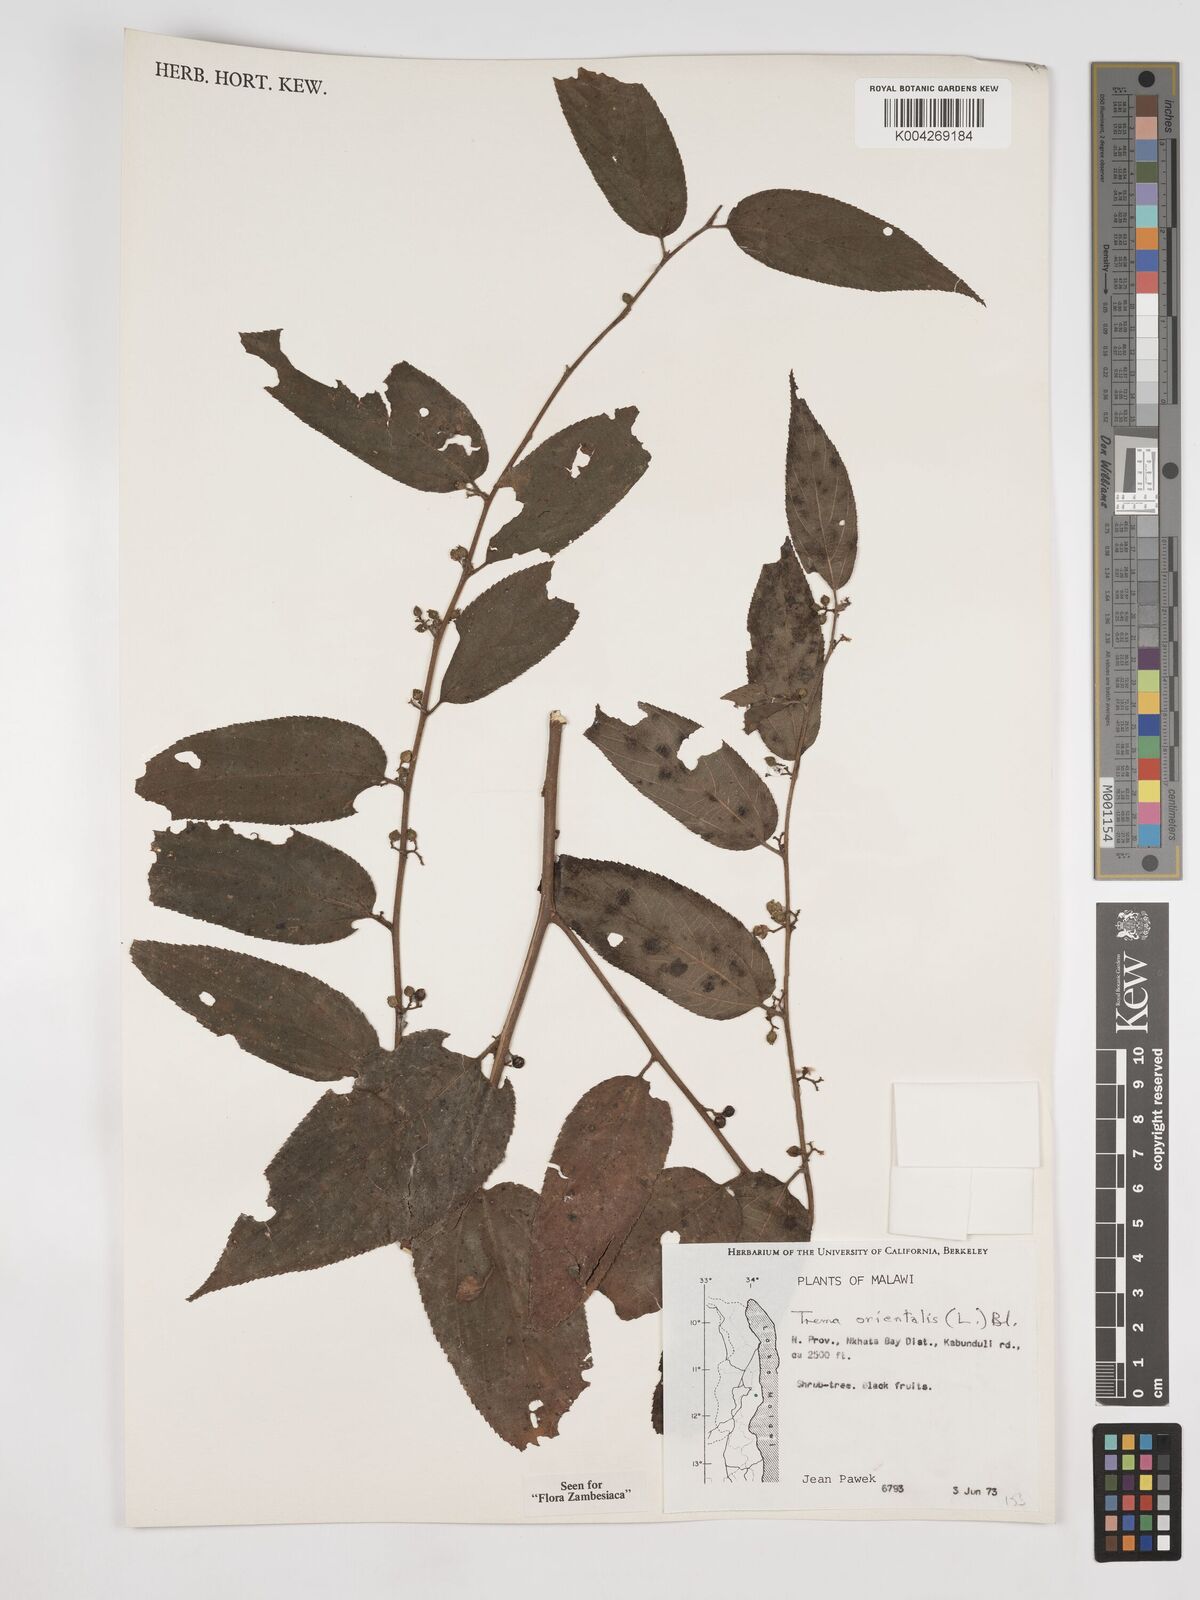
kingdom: Plantae
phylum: Tracheophyta
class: Magnoliopsida
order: Rosales
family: Cannabaceae
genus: Trema
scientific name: Trema orientale
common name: Indian charcoal tree
